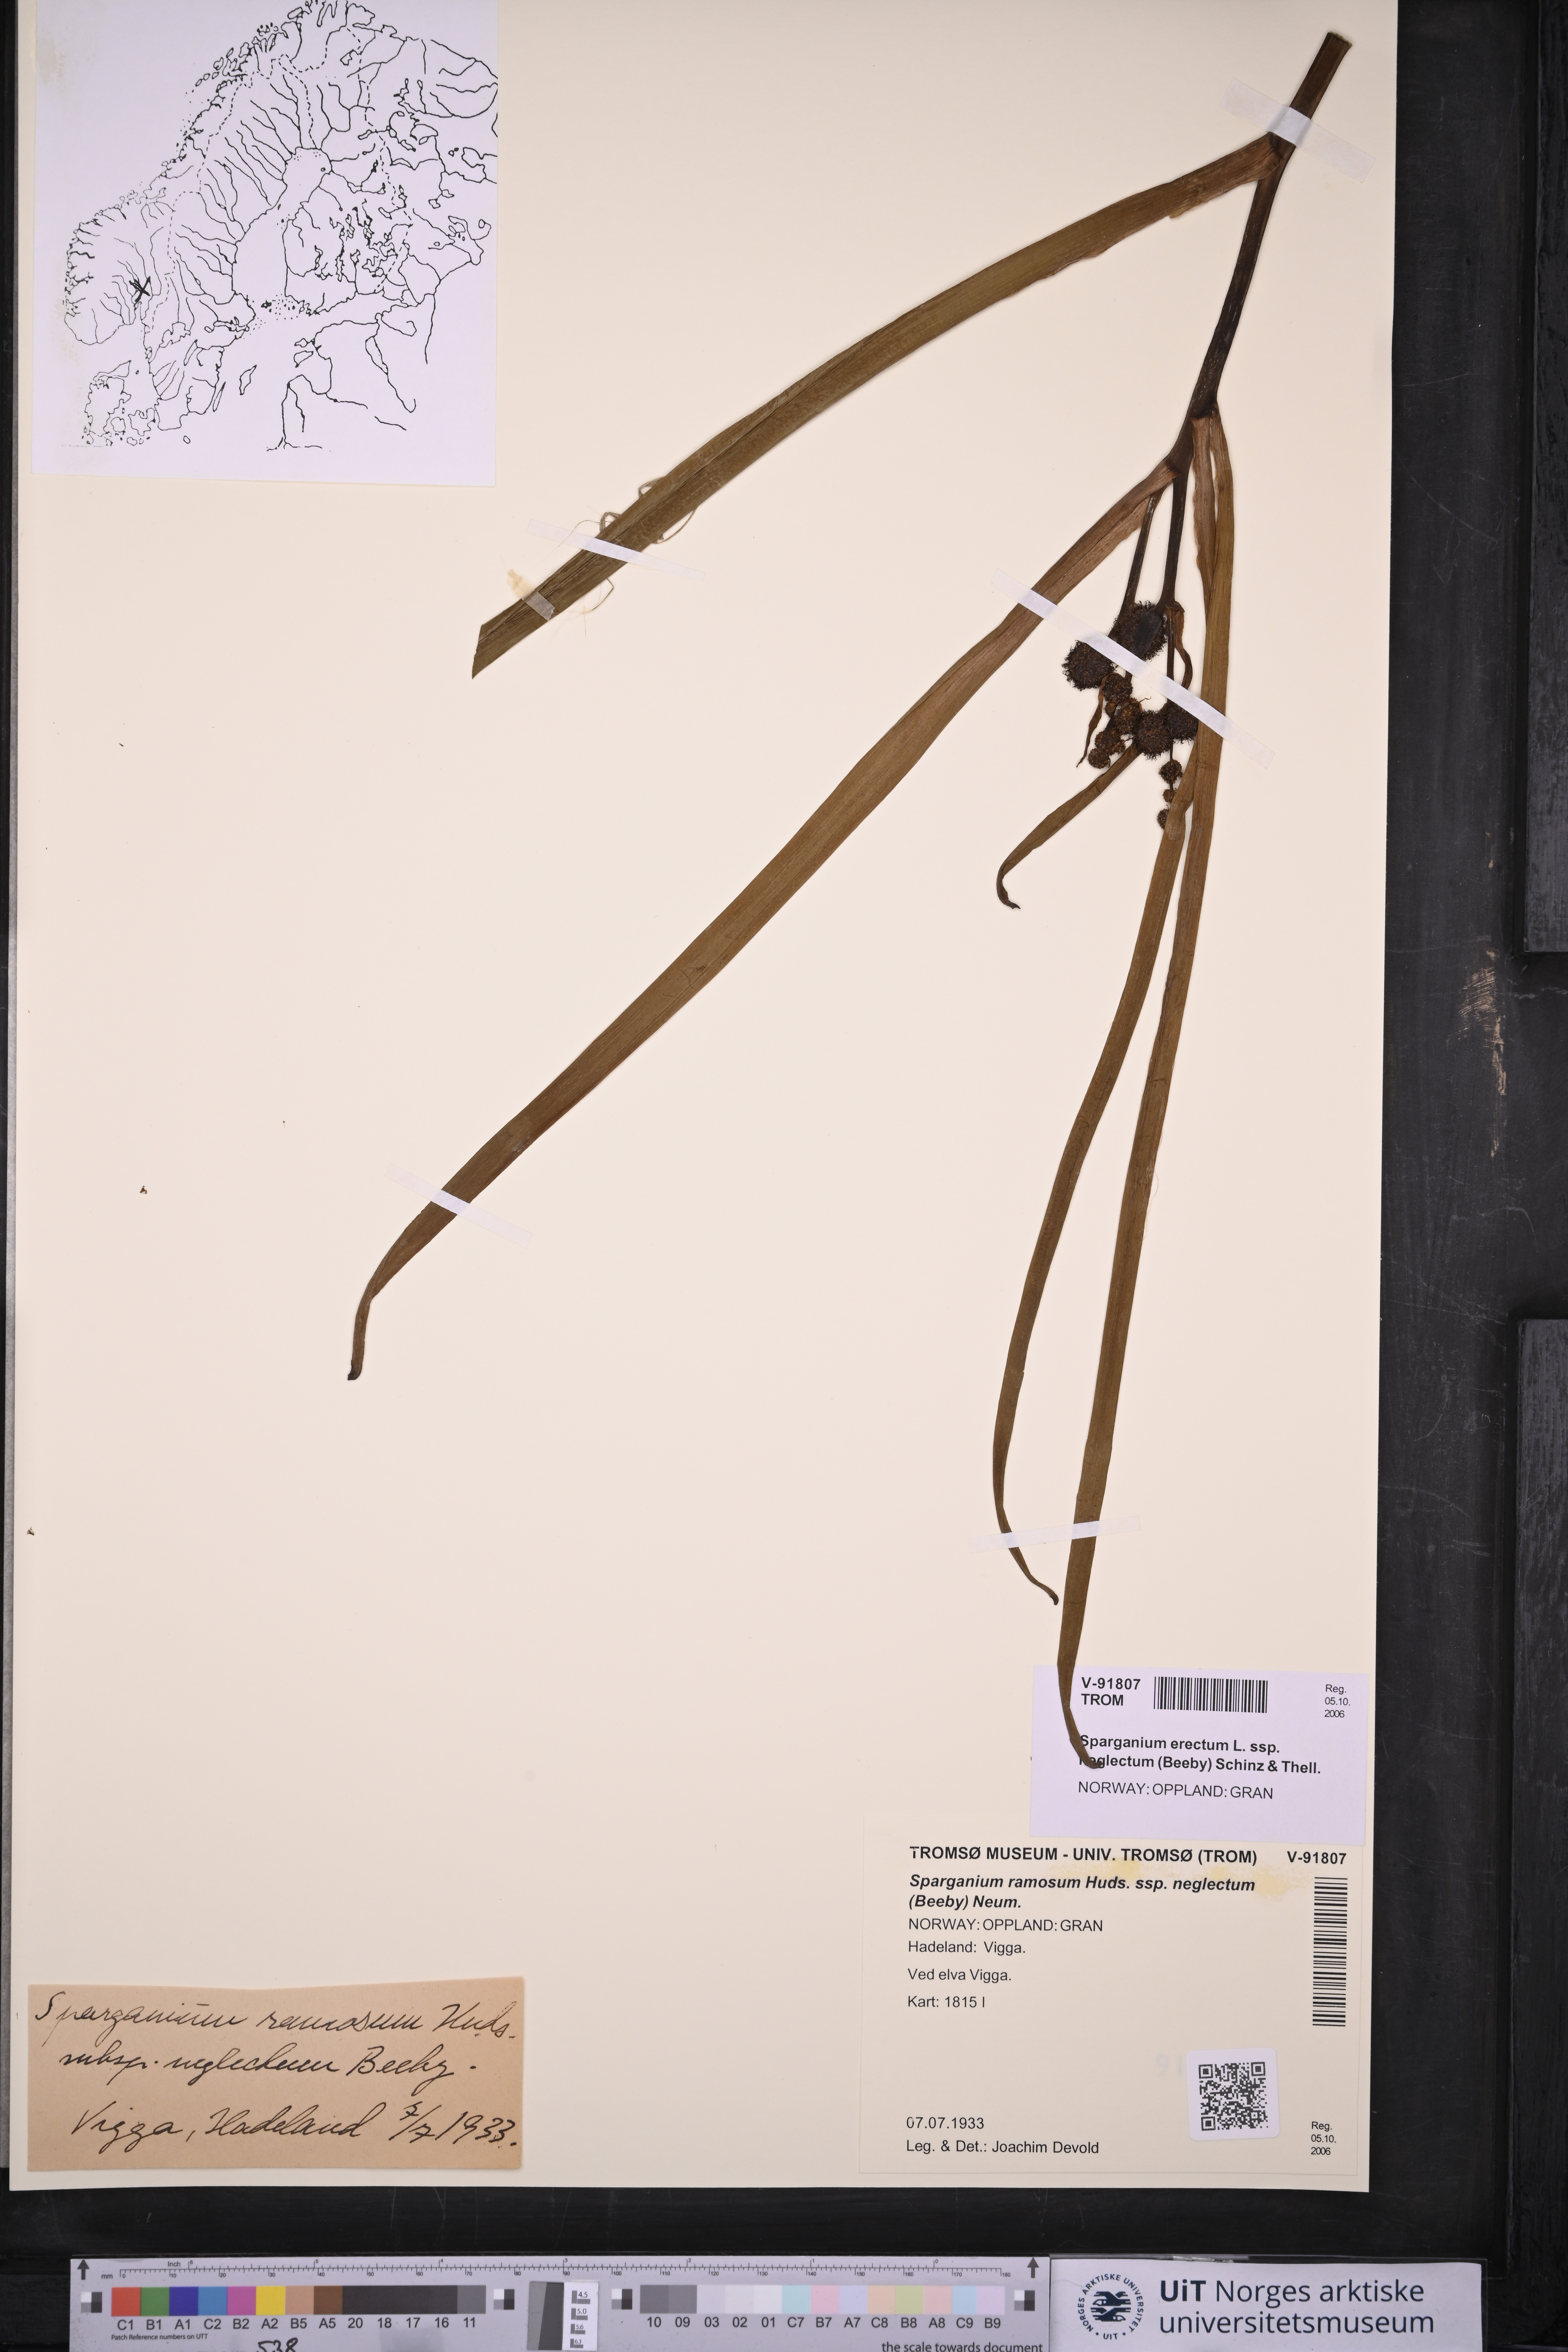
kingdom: Plantae
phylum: Tracheophyta
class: Liliopsida
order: Poales
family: Typhaceae
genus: Sparganium
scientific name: Sparganium erectum
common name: Branched bur-reed
